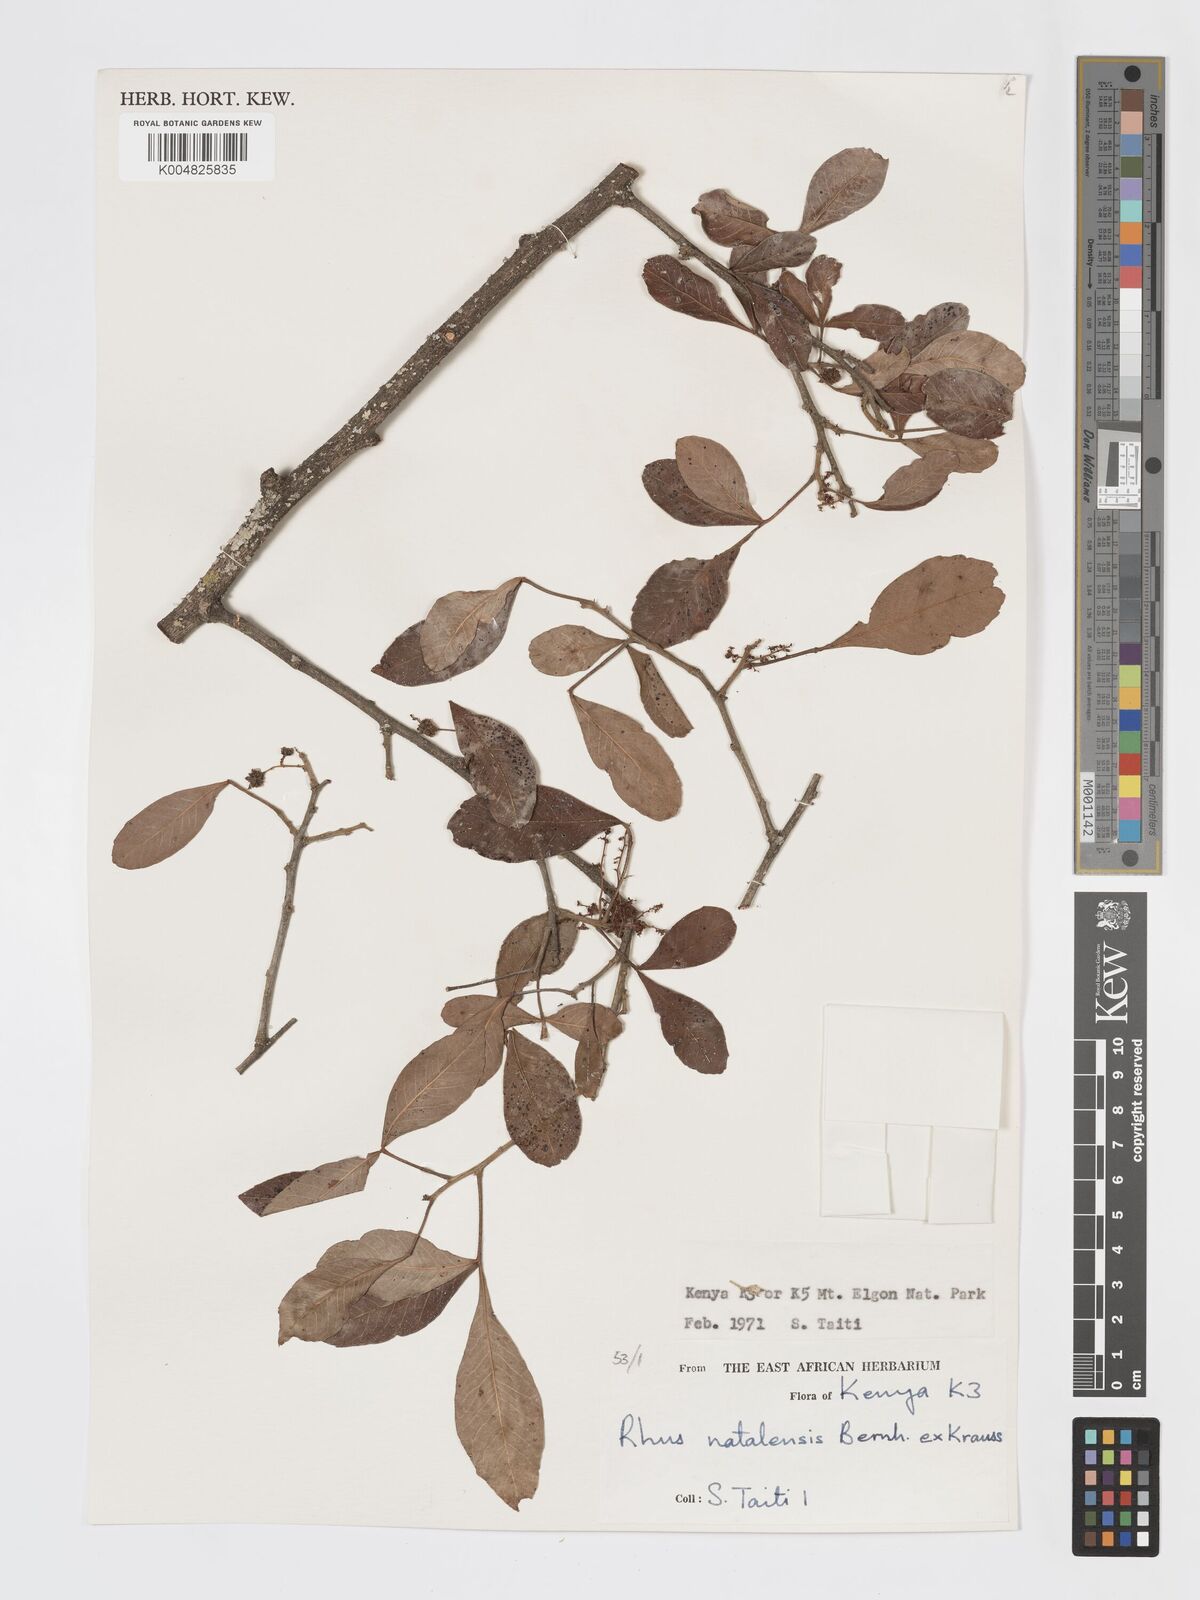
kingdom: Plantae
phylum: Tracheophyta
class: Magnoliopsida
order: Sapindales
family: Anacardiaceae
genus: Searsia
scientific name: Searsia natalensis
